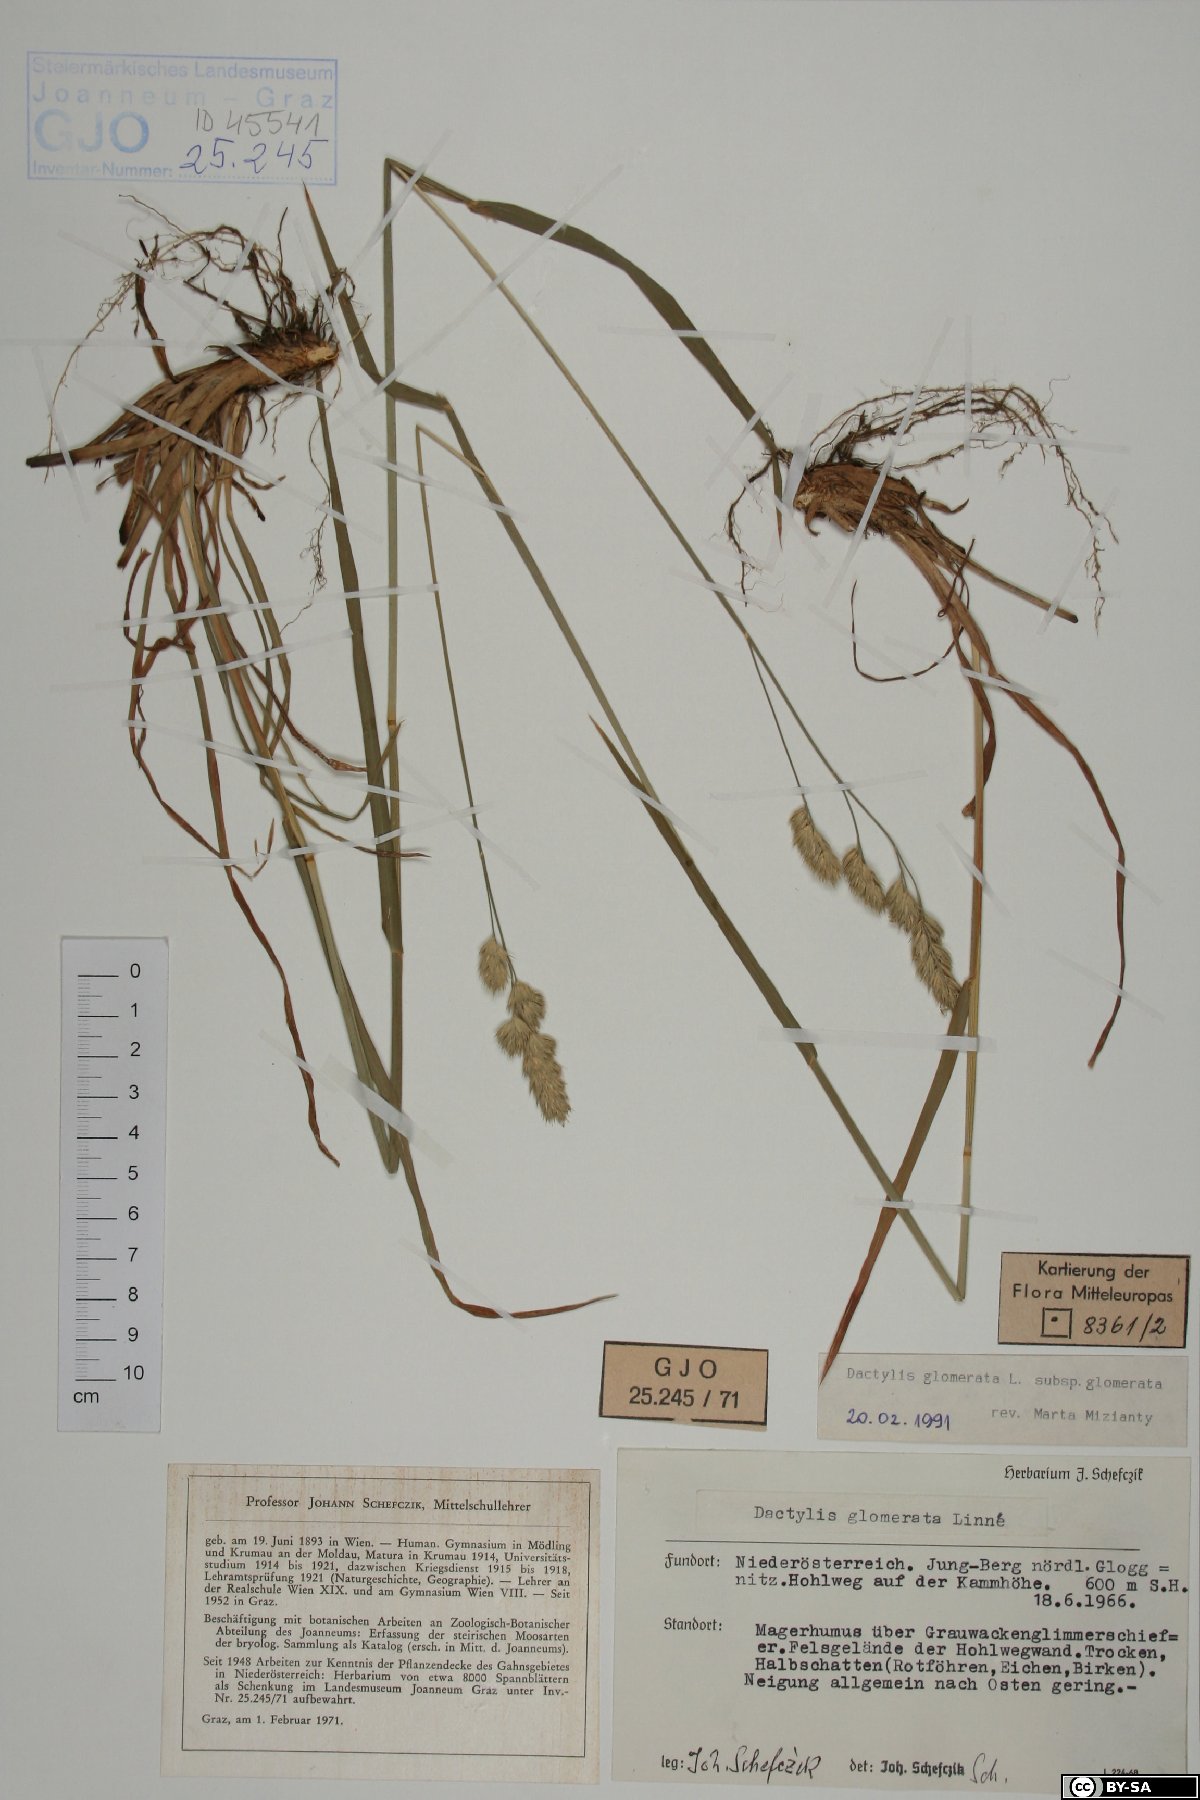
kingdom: Plantae
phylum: Tracheophyta
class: Liliopsida
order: Poales
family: Poaceae
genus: Dactylis
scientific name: Dactylis glomerata
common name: Orchardgrass
